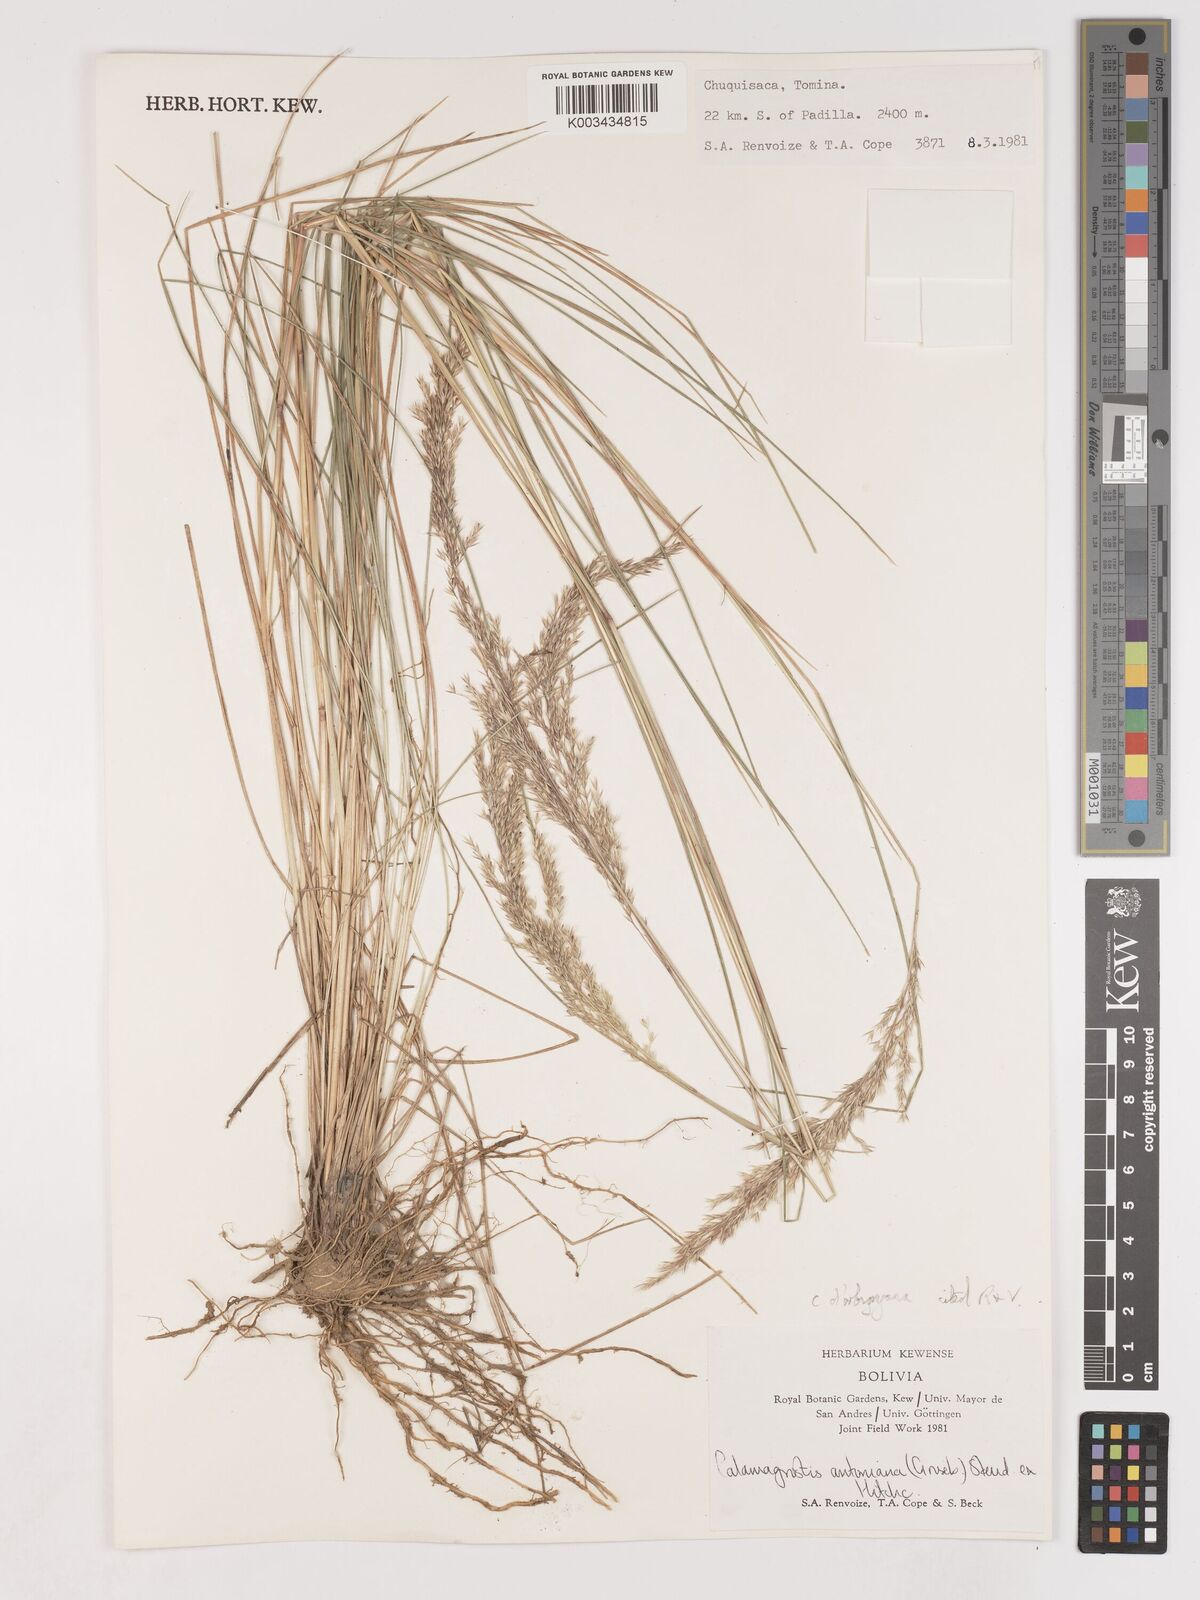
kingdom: Plantae
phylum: Tracheophyta
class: Liliopsida
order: Poales
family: Poaceae
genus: Cinnagrostis
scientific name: Cinnagrostis orbignyana
